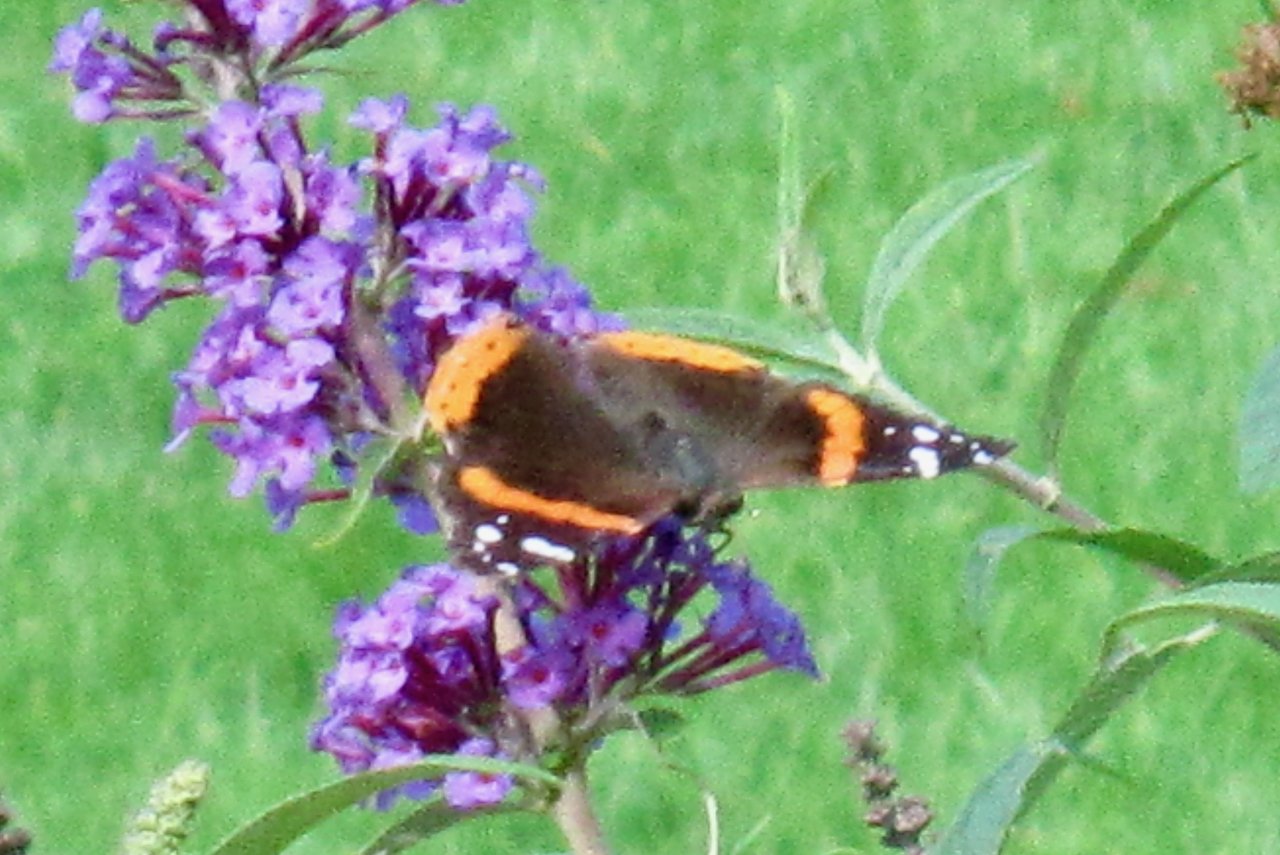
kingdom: Animalia
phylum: Arthropoda
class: Insecta
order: Lepidoptera
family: Nymphalidae
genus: Vanessa
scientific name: Vanessa atalanta
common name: Red Admiral
